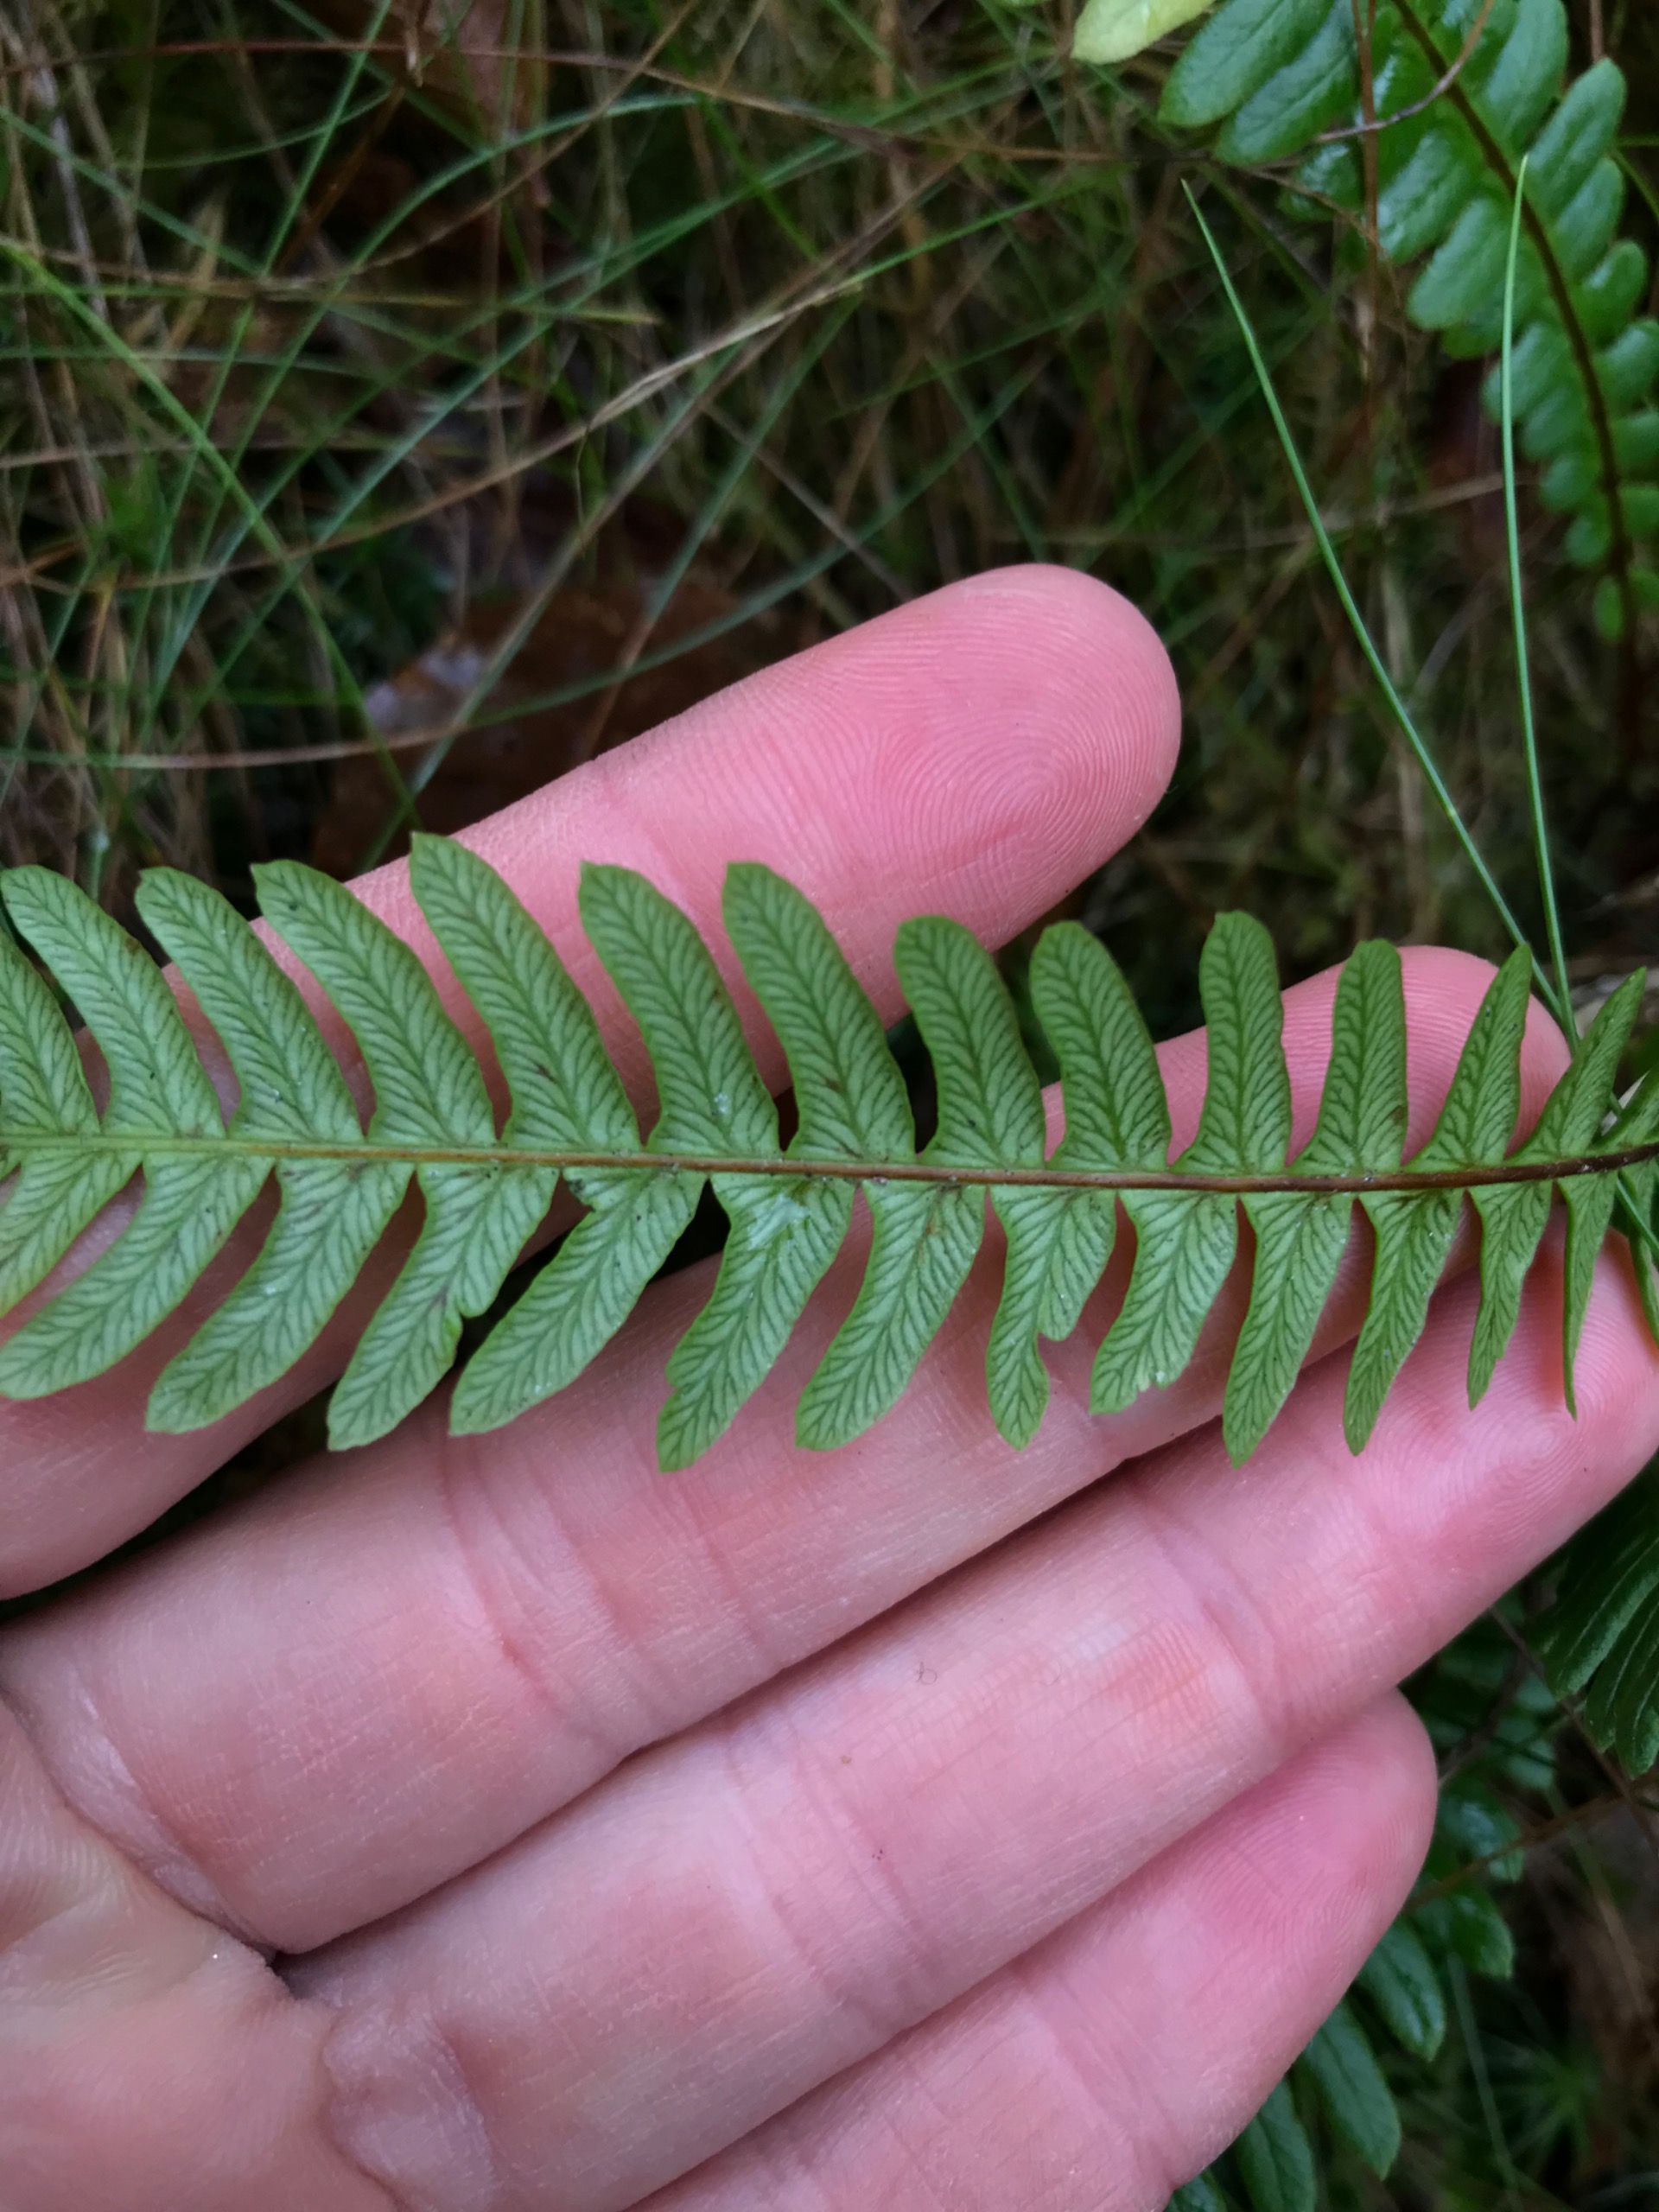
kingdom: Plantae
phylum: Tracheophyta
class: Polypodiopsida
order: Polypodiales
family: Blechnaceae
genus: Struthiopteris
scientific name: Struthiopteris spicant
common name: Kambregne
